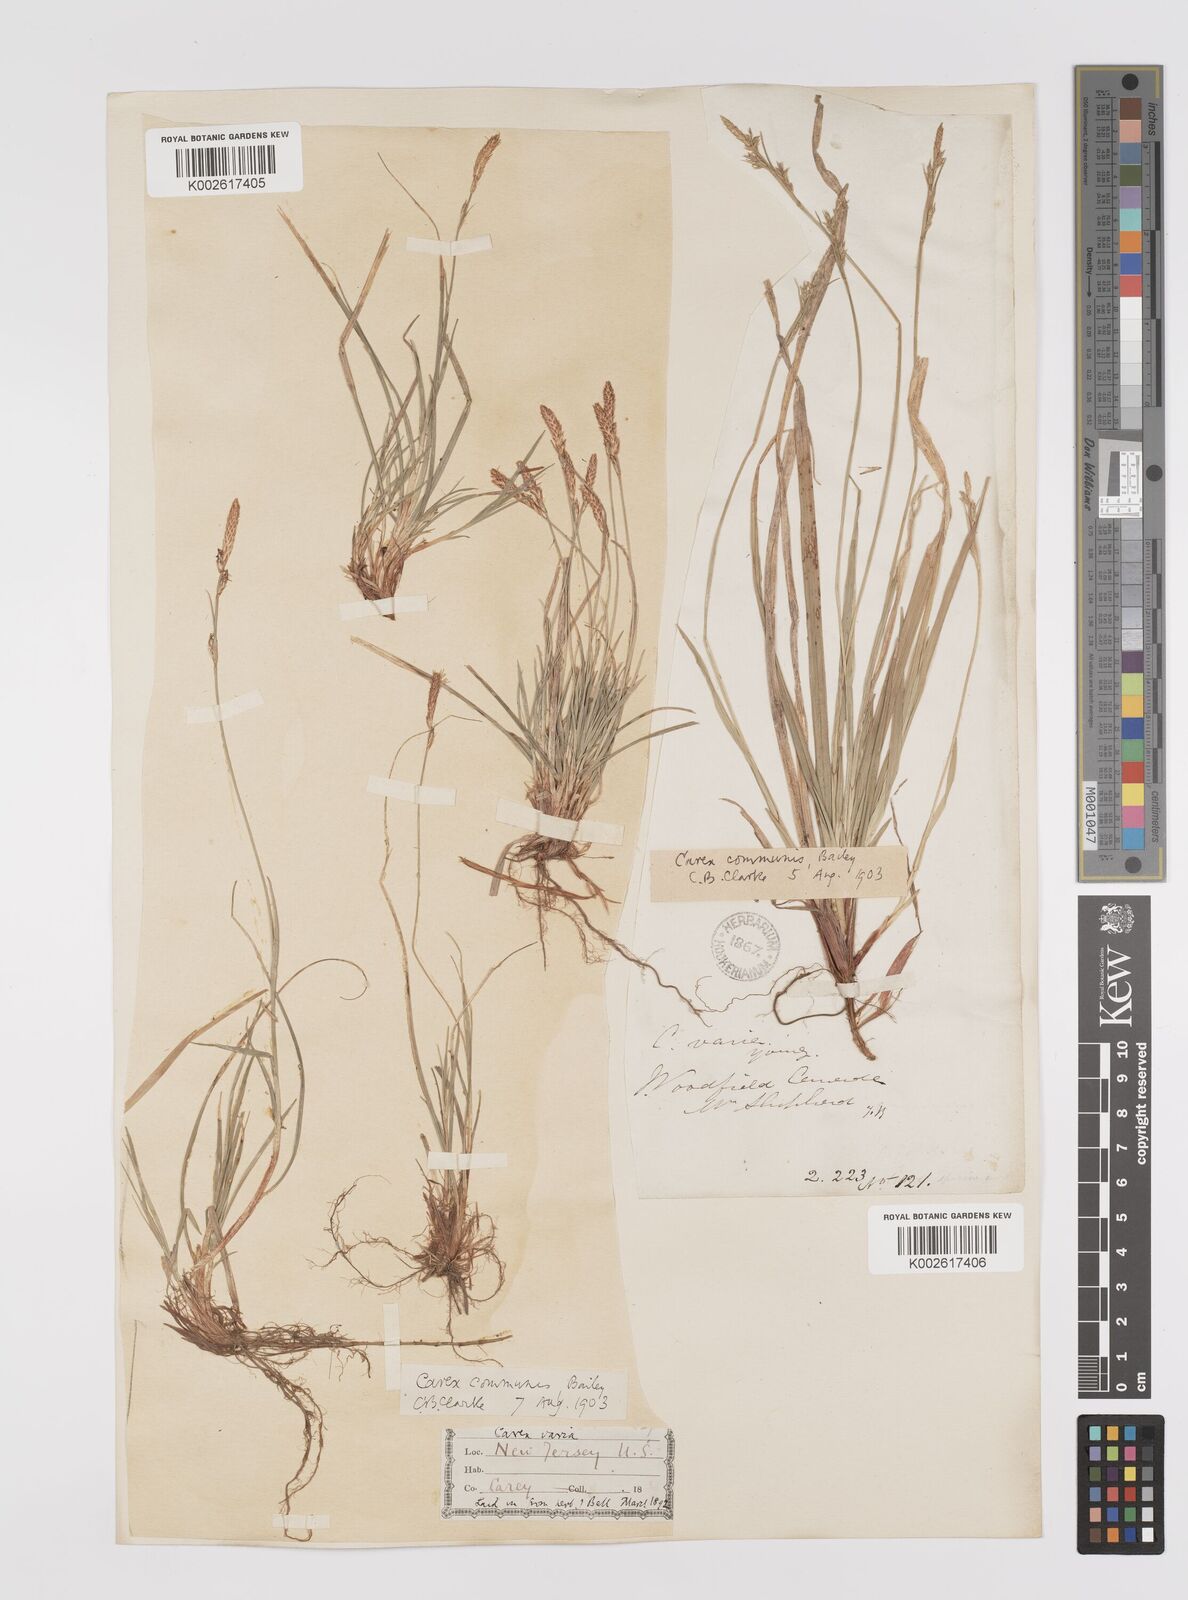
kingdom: Plantae
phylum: Tracheophyta
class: Liliopsida
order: Poales
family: Cyperaceae
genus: Carex
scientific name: Carex communis
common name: Colonial oak sedge
